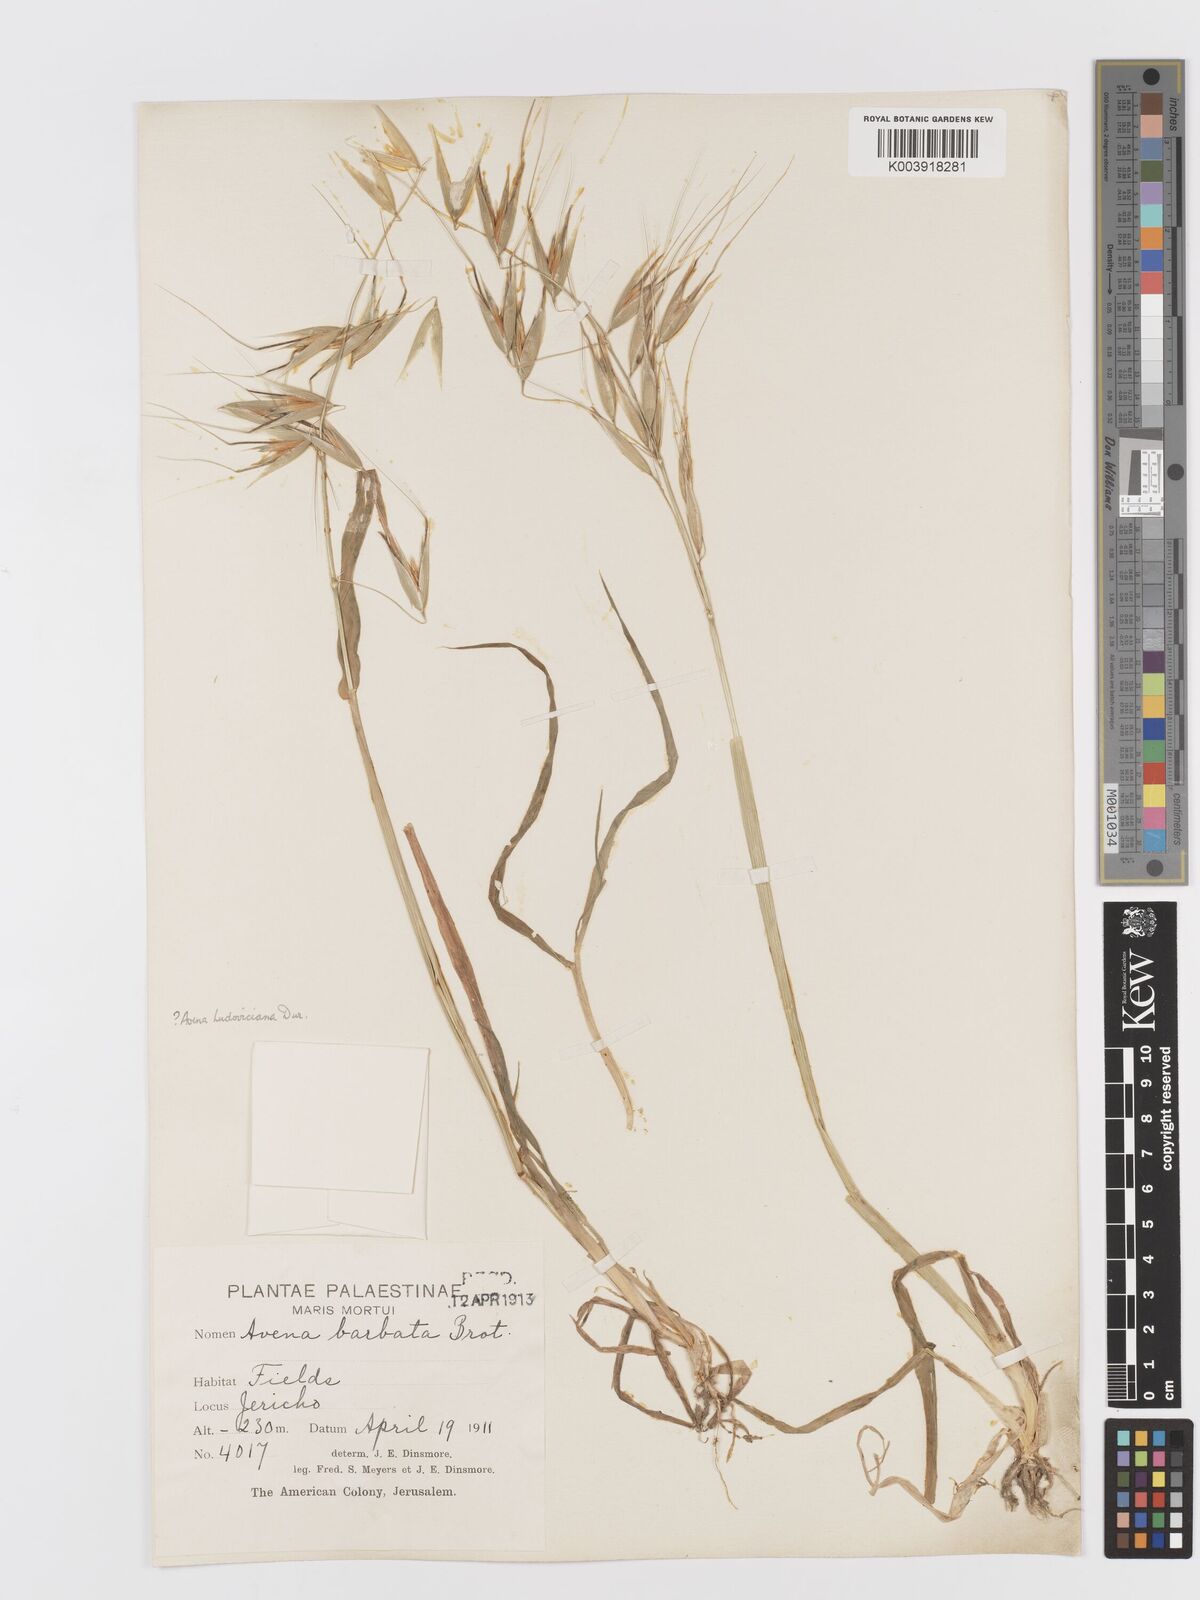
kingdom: Plantae
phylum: Tracheophyta
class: Liliopsida
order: Poales
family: Poaceae
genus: Avena
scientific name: Avena sterilis
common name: Animated oat
